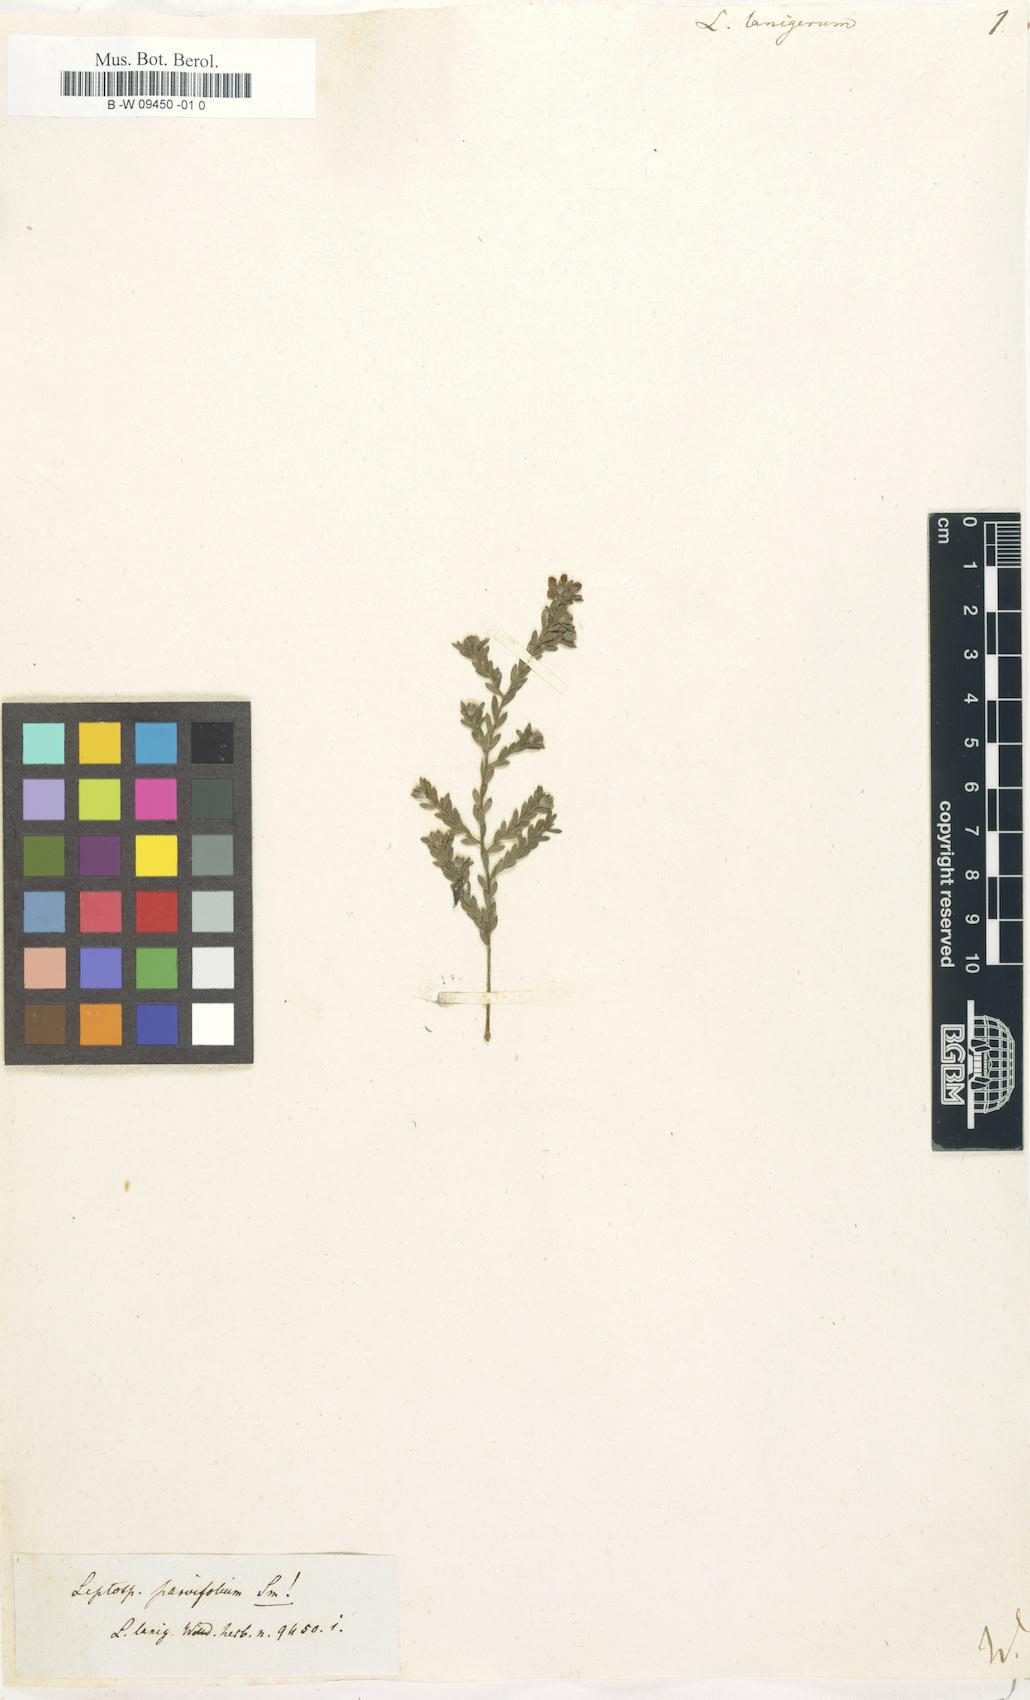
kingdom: Plantae
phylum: Tracheophyta
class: Magnoliopsida
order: Myrtales
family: Myrtaceae
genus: Leptospermum
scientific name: Leptospermum lanigerum
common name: Woolly tea-tree
